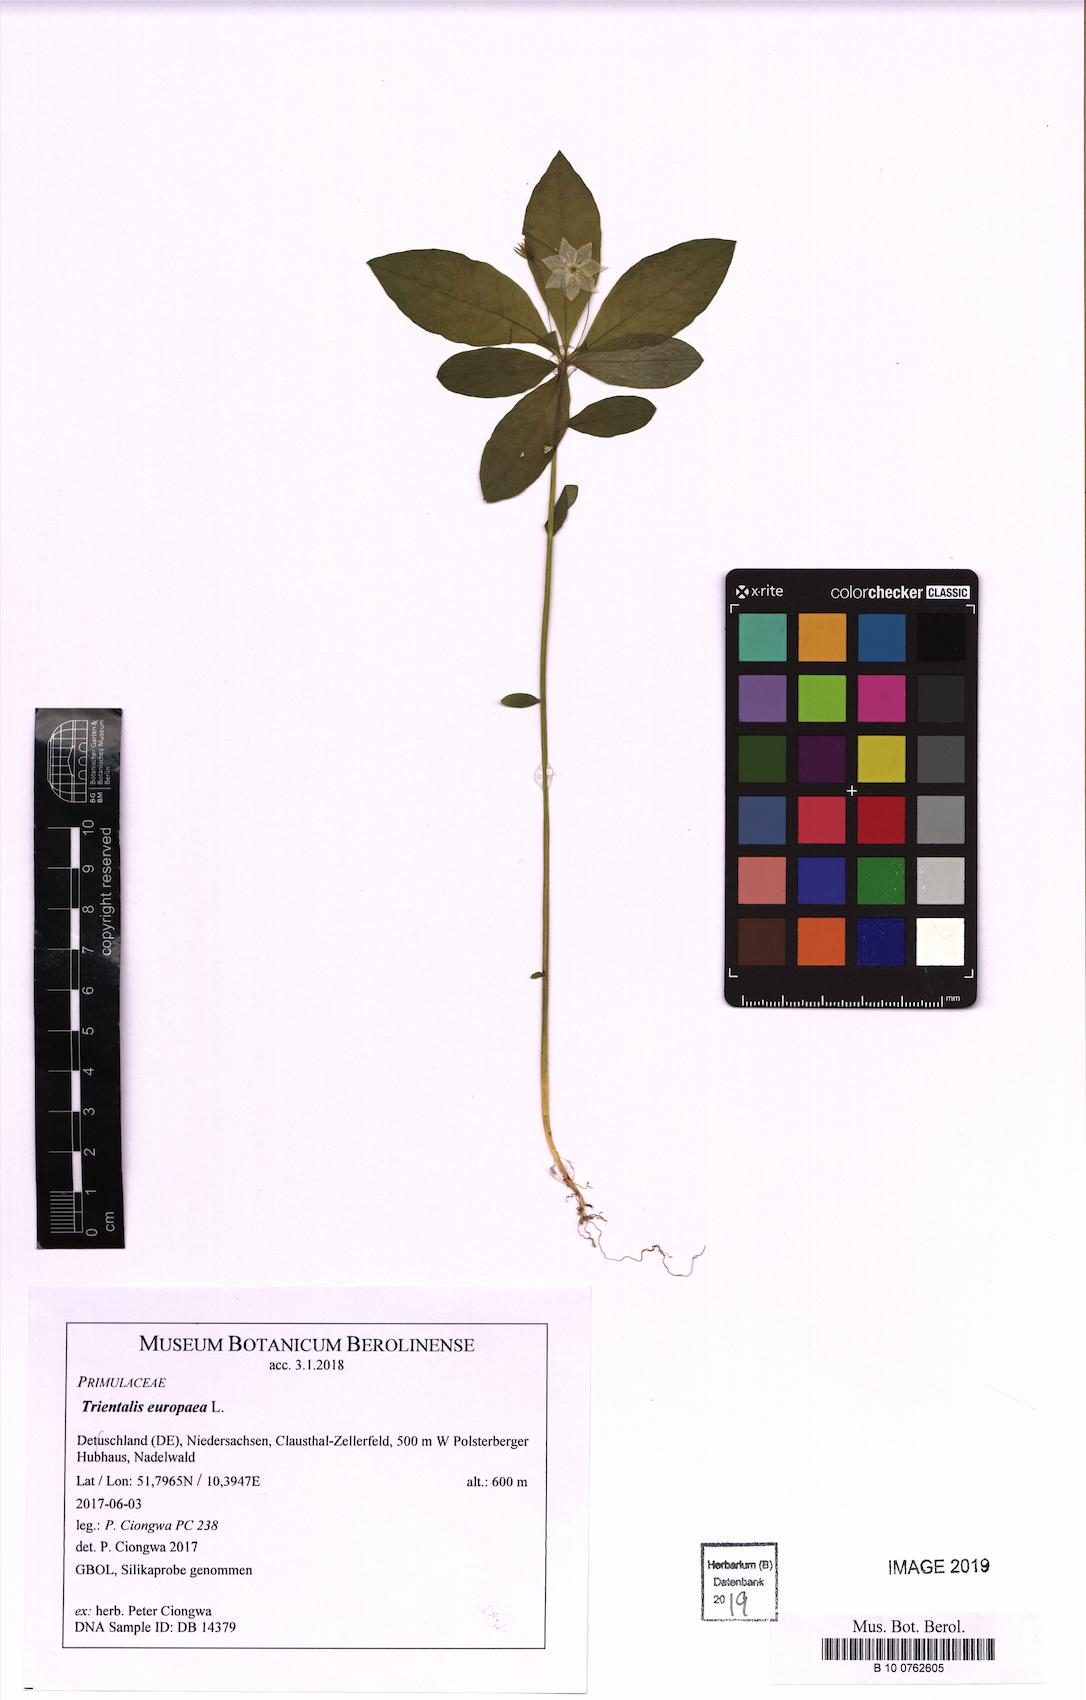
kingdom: Plantae
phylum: Tracheophyta
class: Magnoliopsida
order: Ericales
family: Primulaceae
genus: Lysimachia
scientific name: Lysimachia europaea
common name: Arctic starflower
